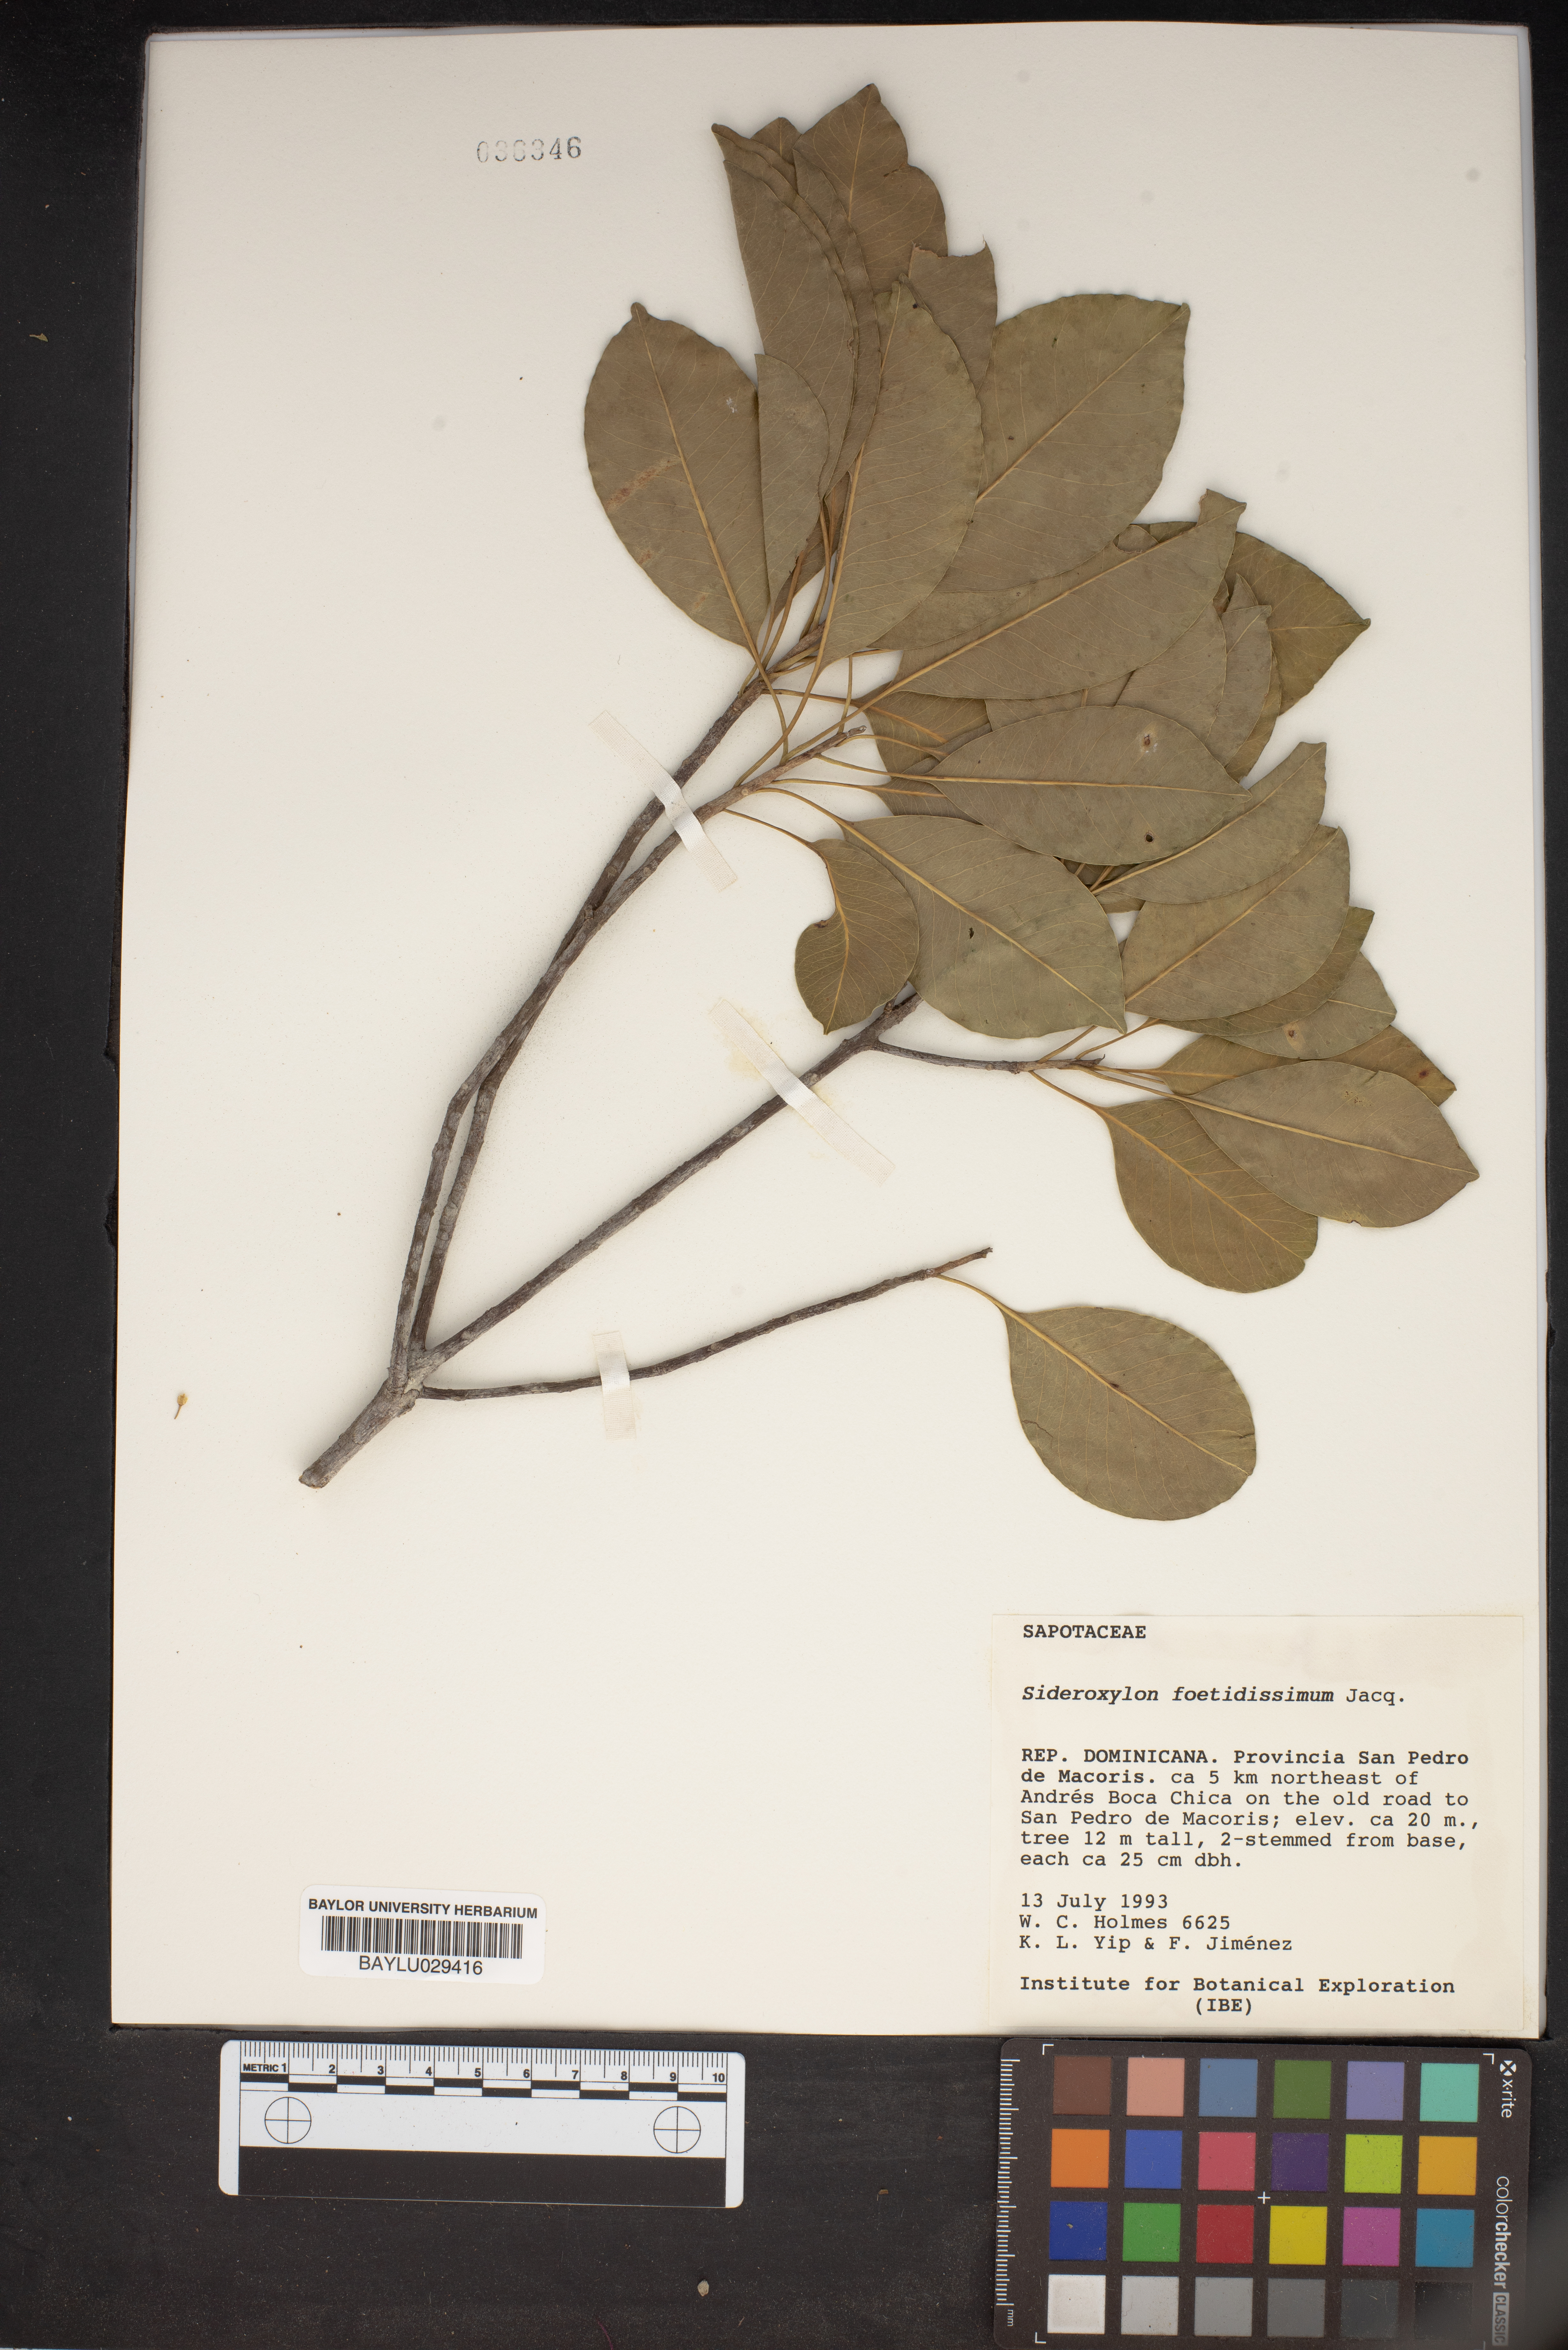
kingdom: Plantae
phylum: Tracheophyta
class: Magnoliopsida
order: Ericales
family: Sapotaceae
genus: Sideroxylon
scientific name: Sideroxylon foetidissimum
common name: Barbados-mastic
